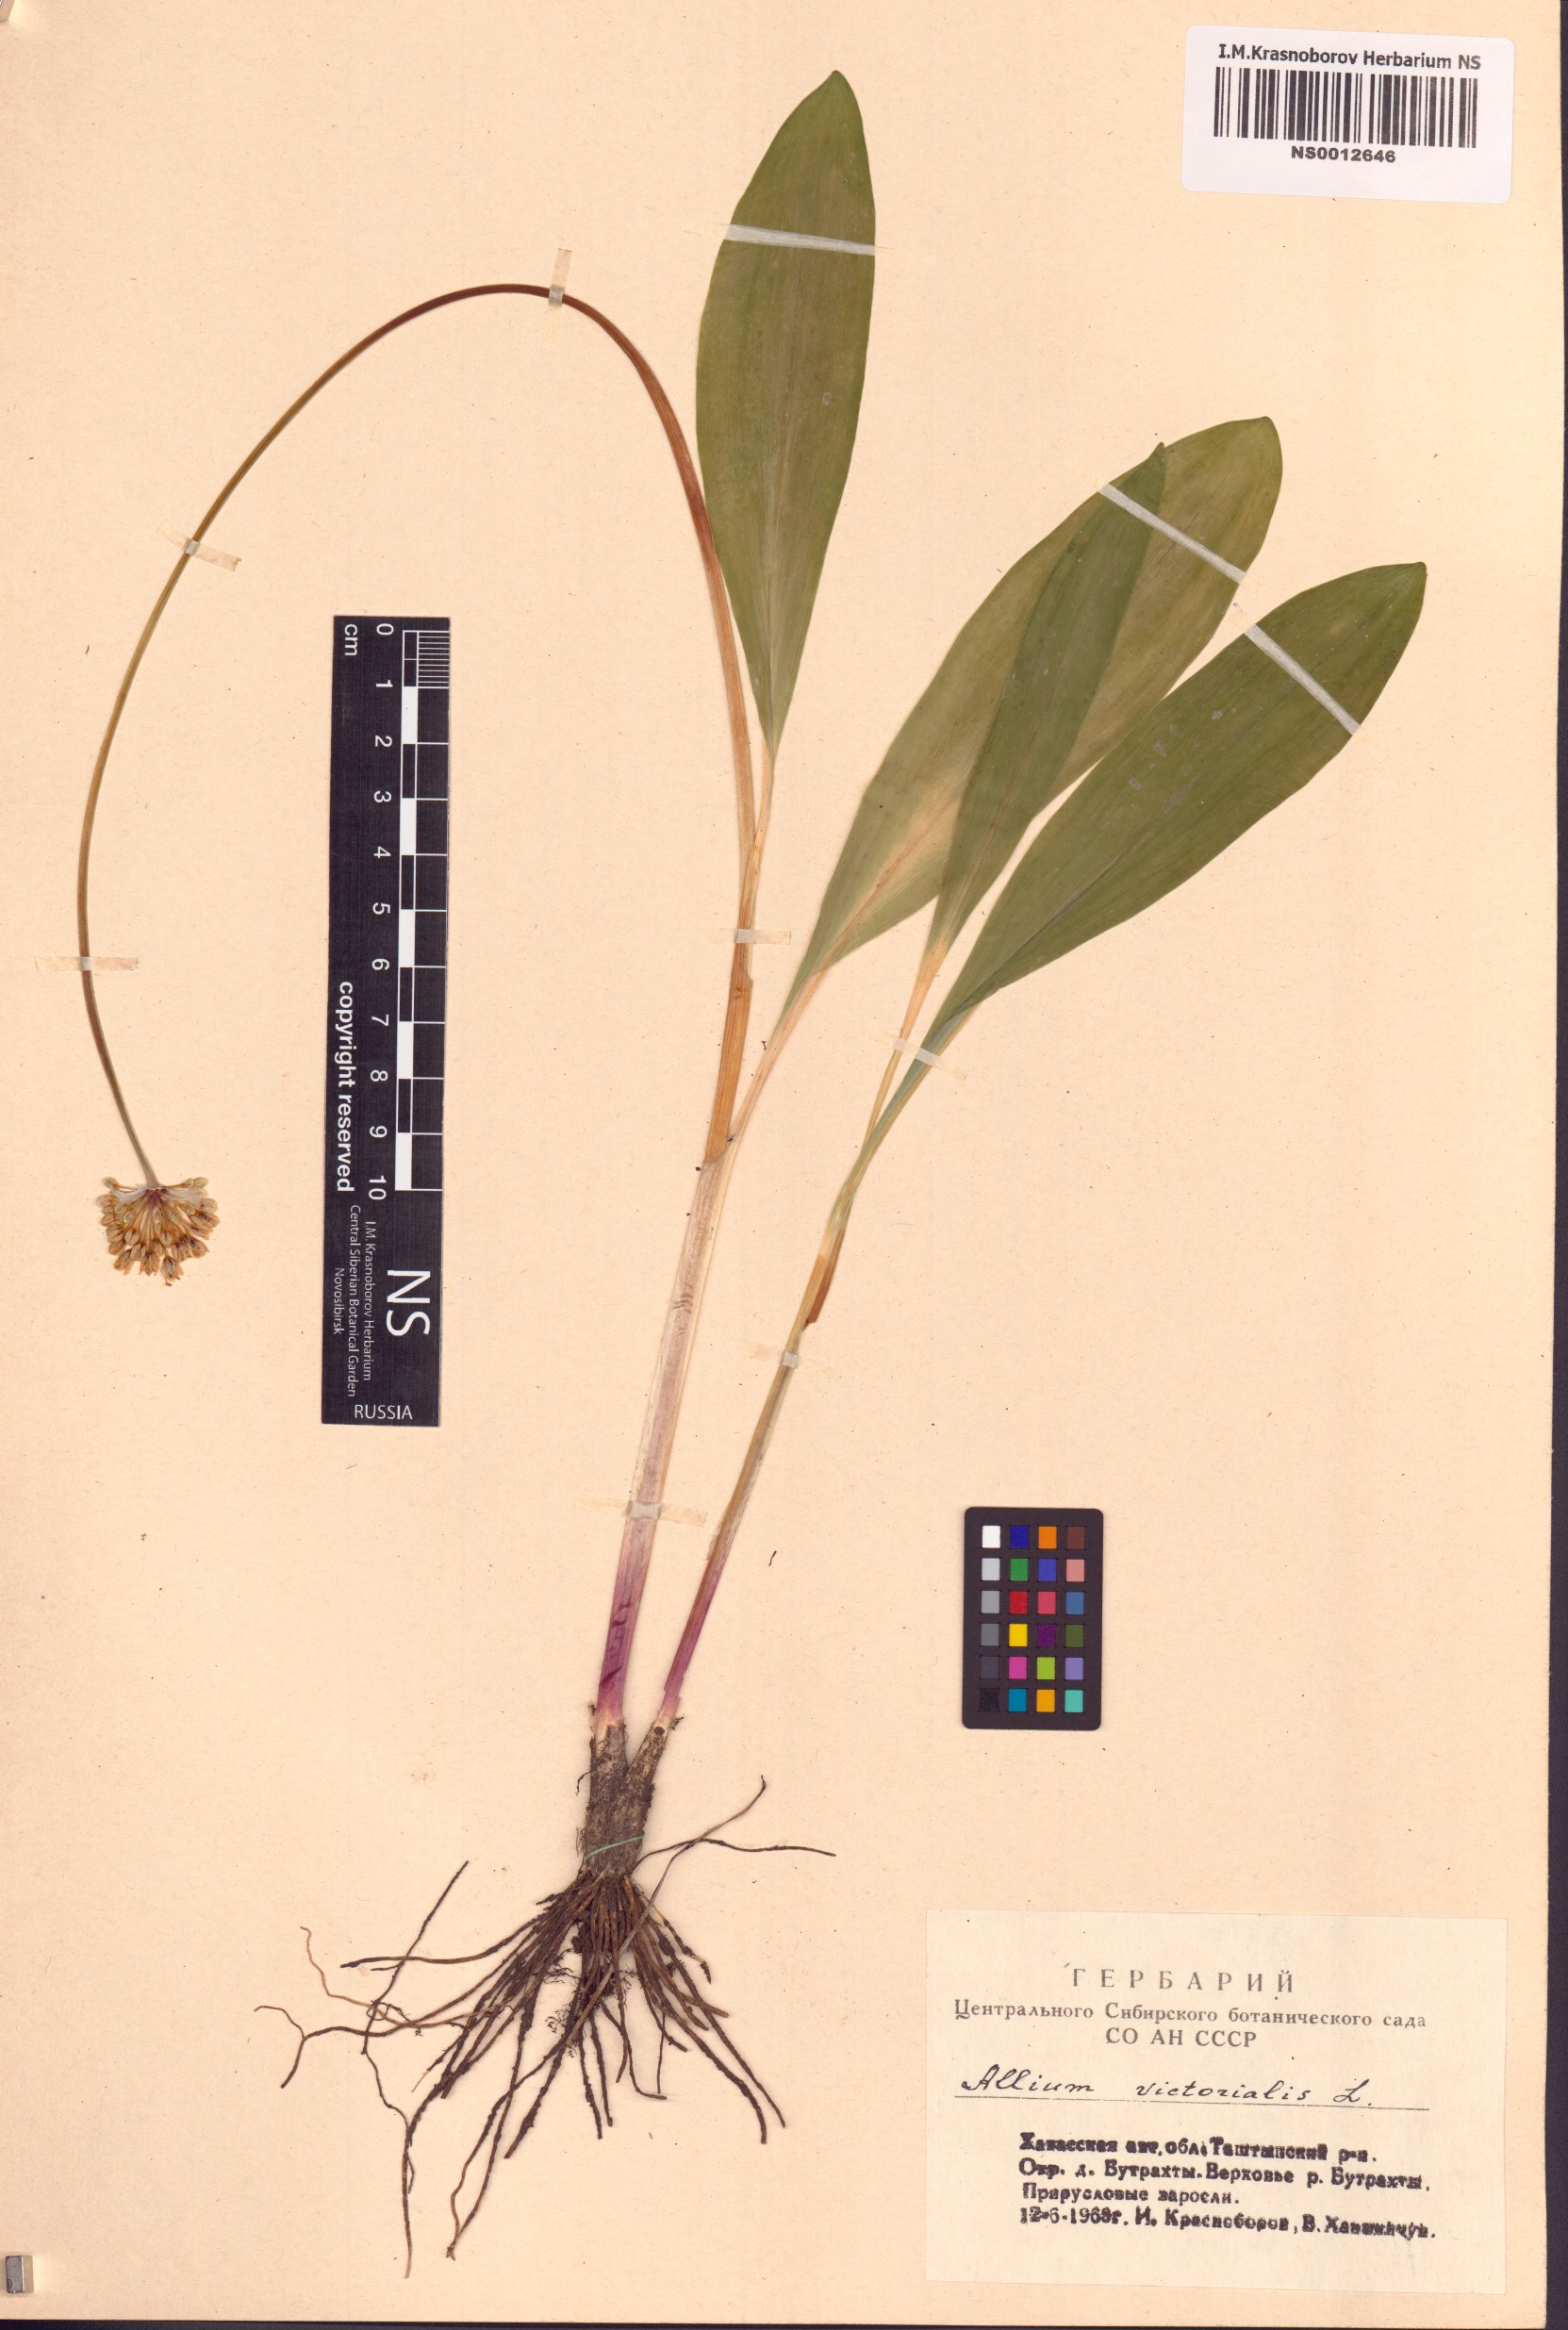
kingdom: Plantae
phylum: Tracheophyta
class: Liliopsida
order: Asparagales
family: Amaryllidaceae
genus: Allium
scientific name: Allium microdictyon
